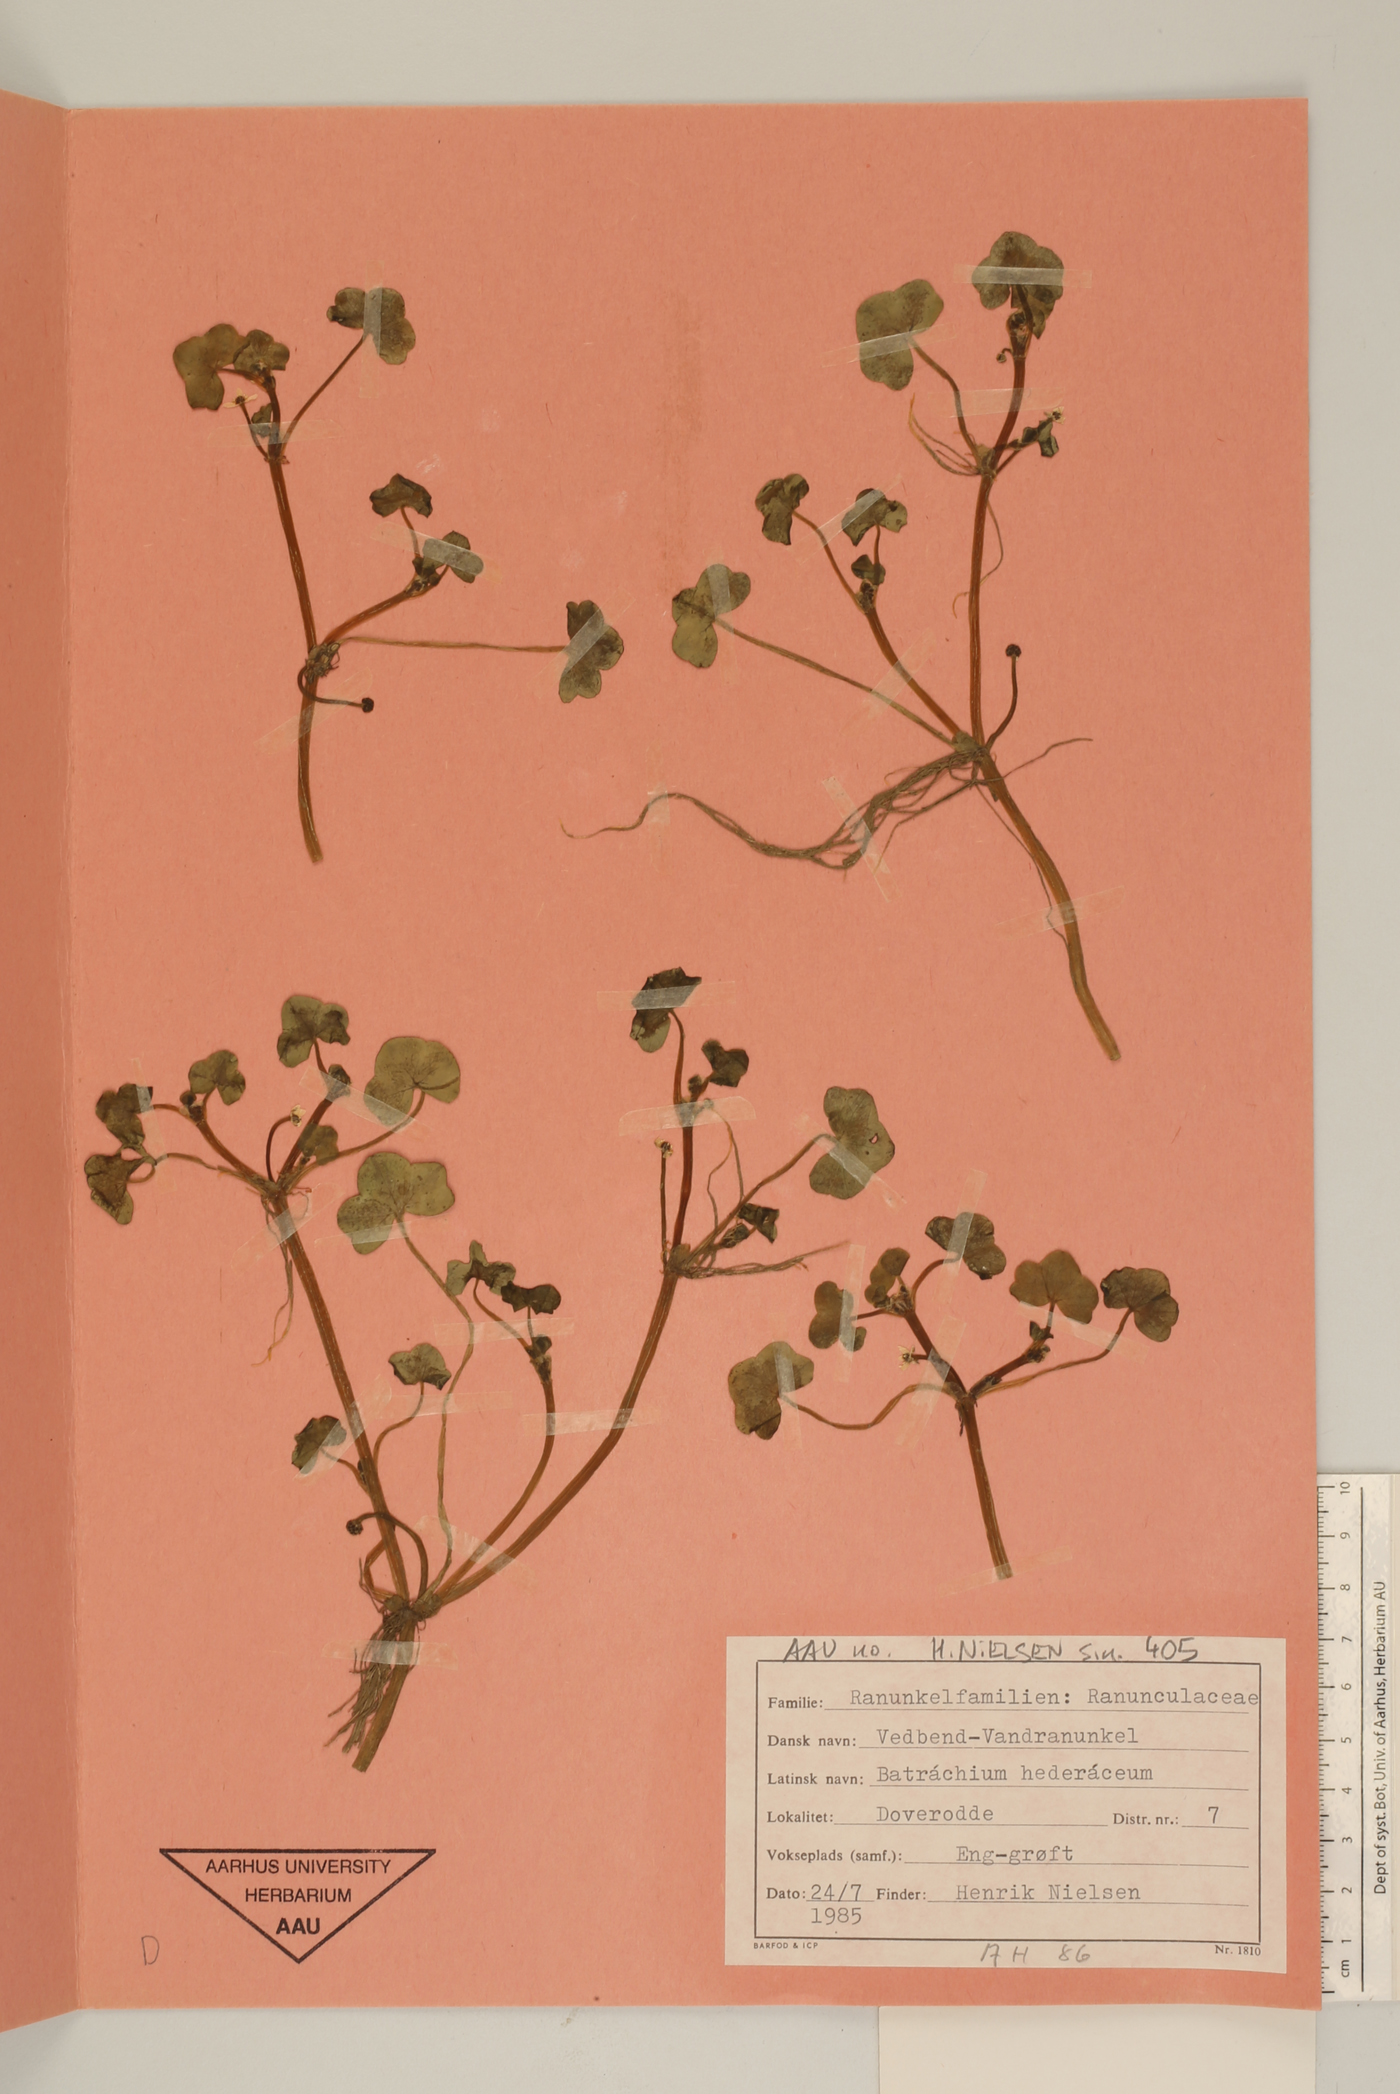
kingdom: Plantae
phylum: Tracheophyta
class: Magnoliopsida
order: Ranunculales
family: Ranunculaceae
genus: Ranunculus
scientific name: Ranunculus hederaceus
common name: Ivy-leaved crowfoot
